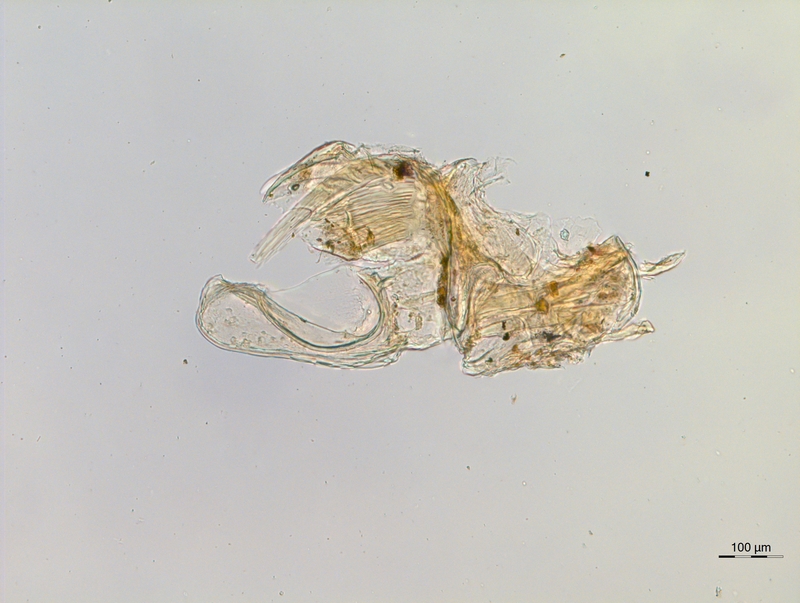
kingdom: Animalia
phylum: Arthropoda
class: Diplopoda
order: Chordeumatida
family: Anthogonidae
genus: Haasia
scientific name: Haasia largescutata
